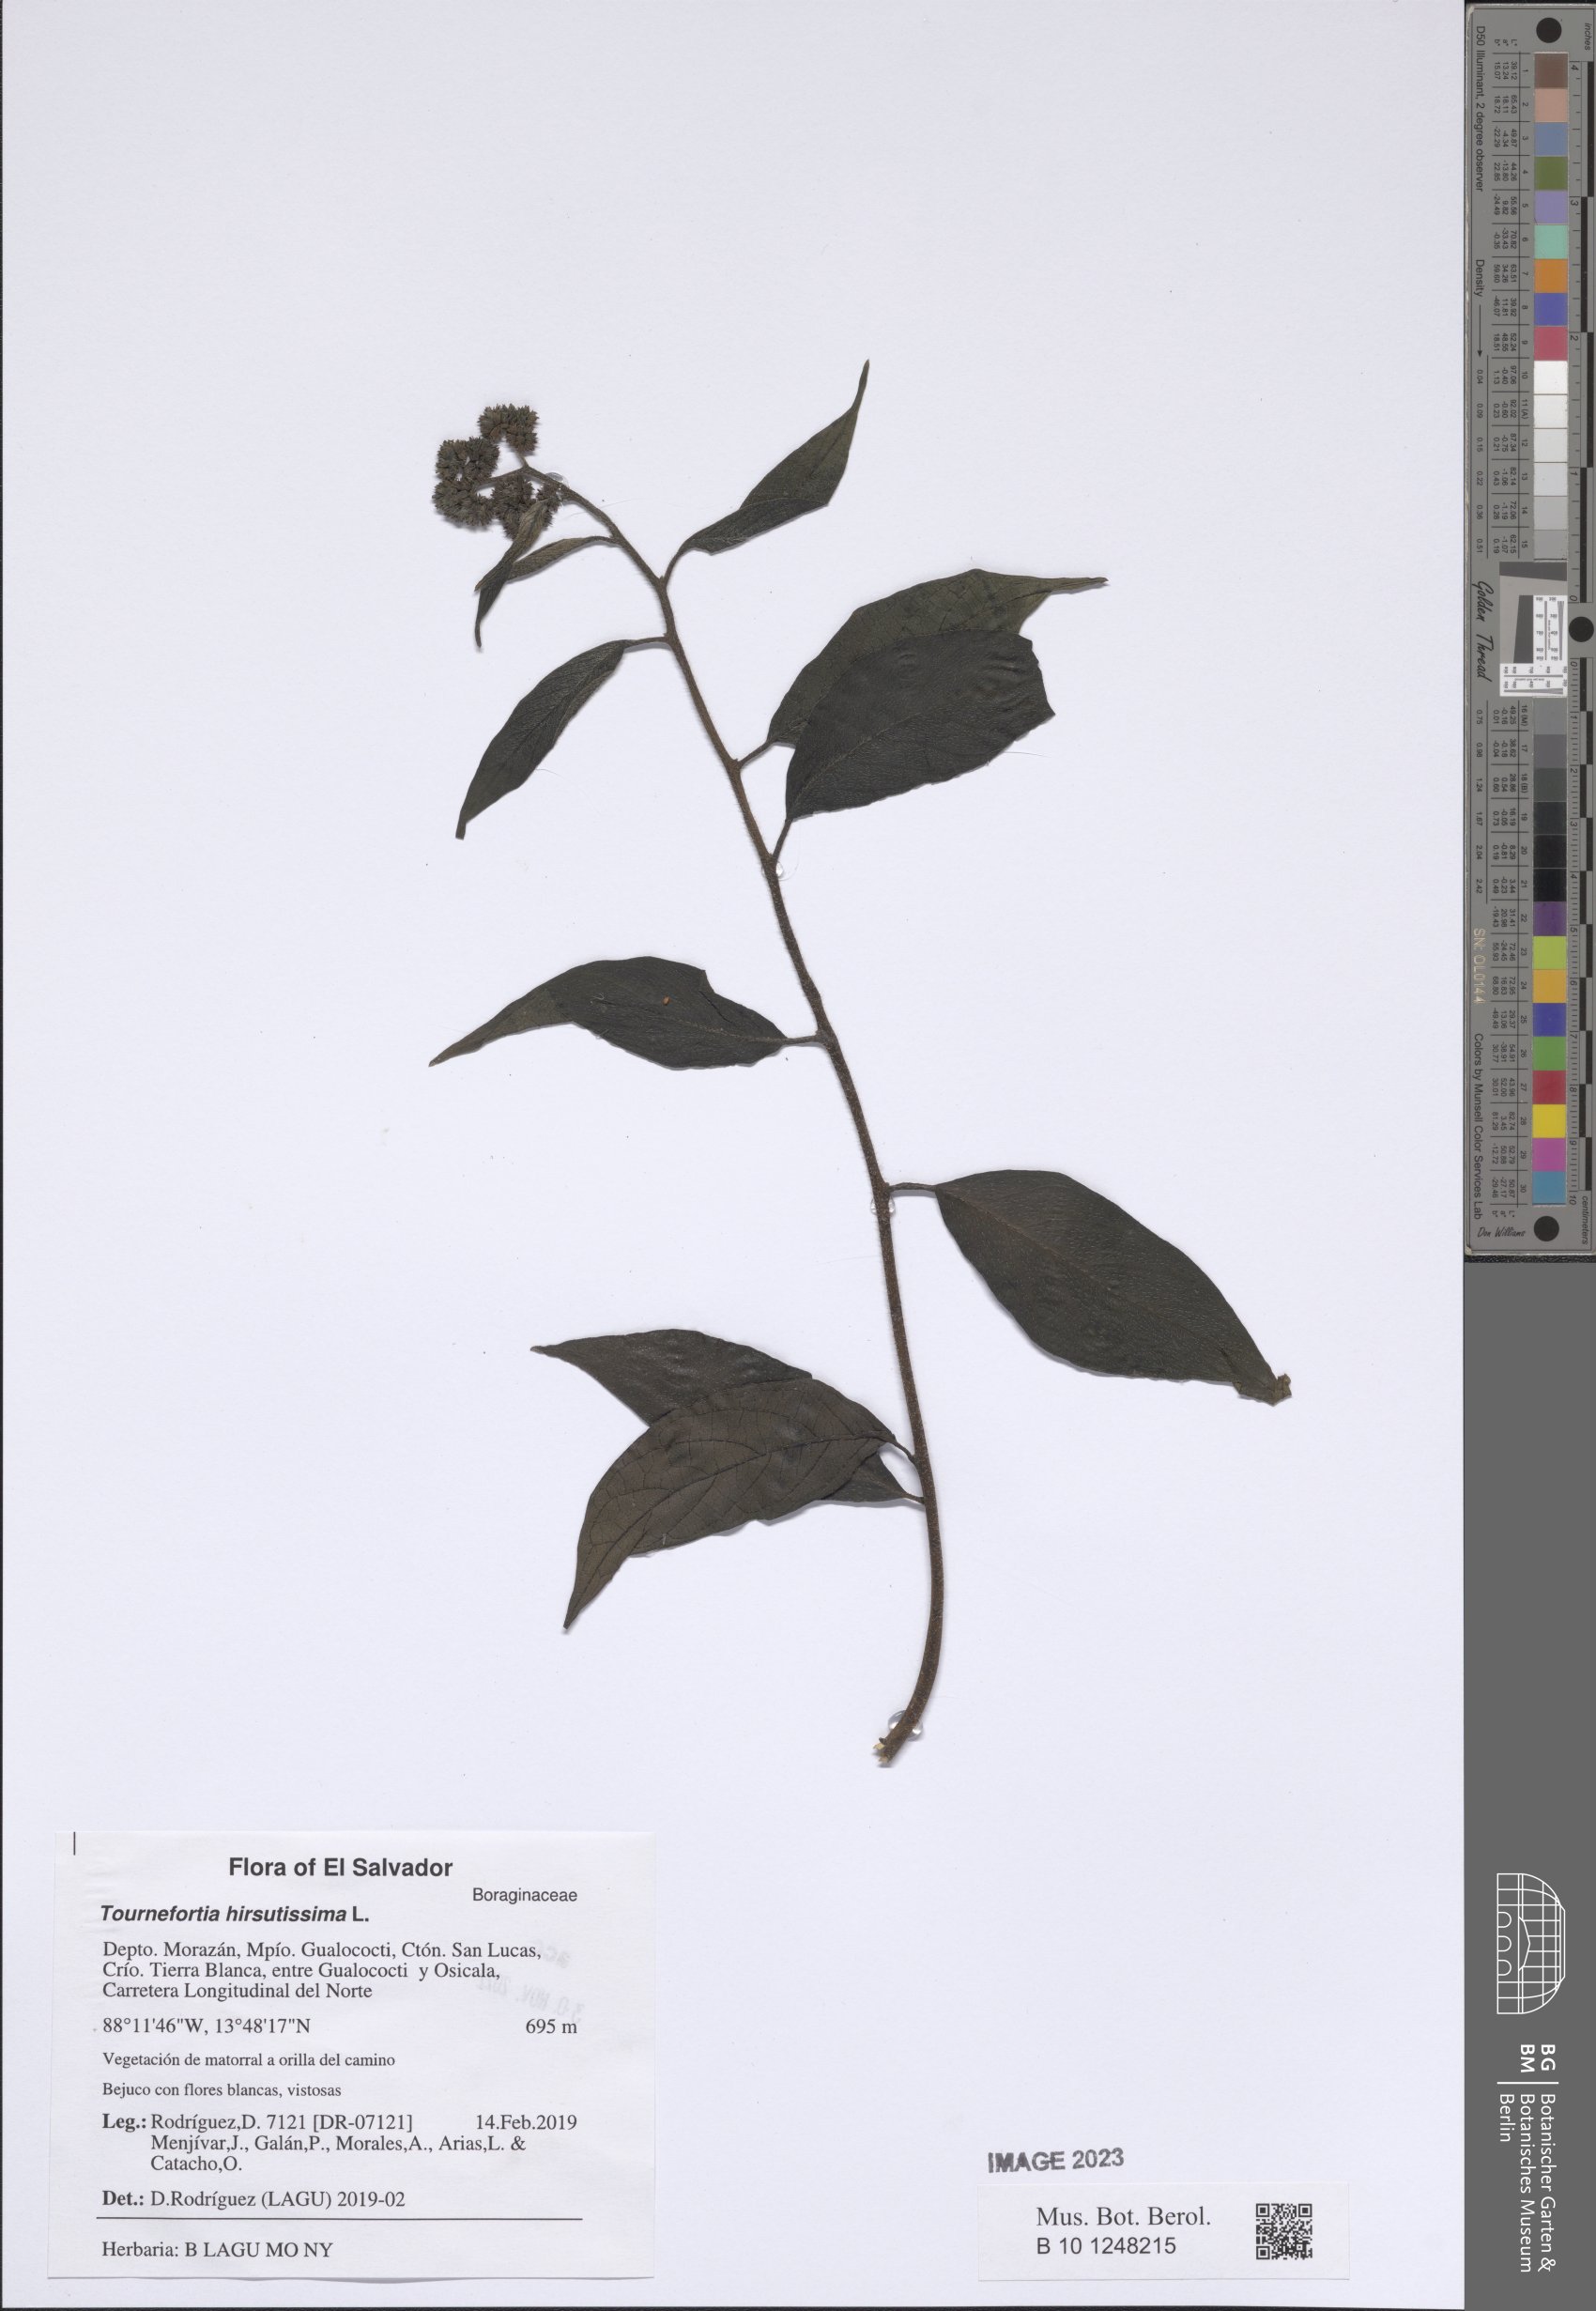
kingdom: Plantae
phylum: Tracheophyta
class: Magnoliopsida
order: Boraginales
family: Heliotropiaceae
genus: Heliotropium
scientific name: Heliotropium verdcourtii
